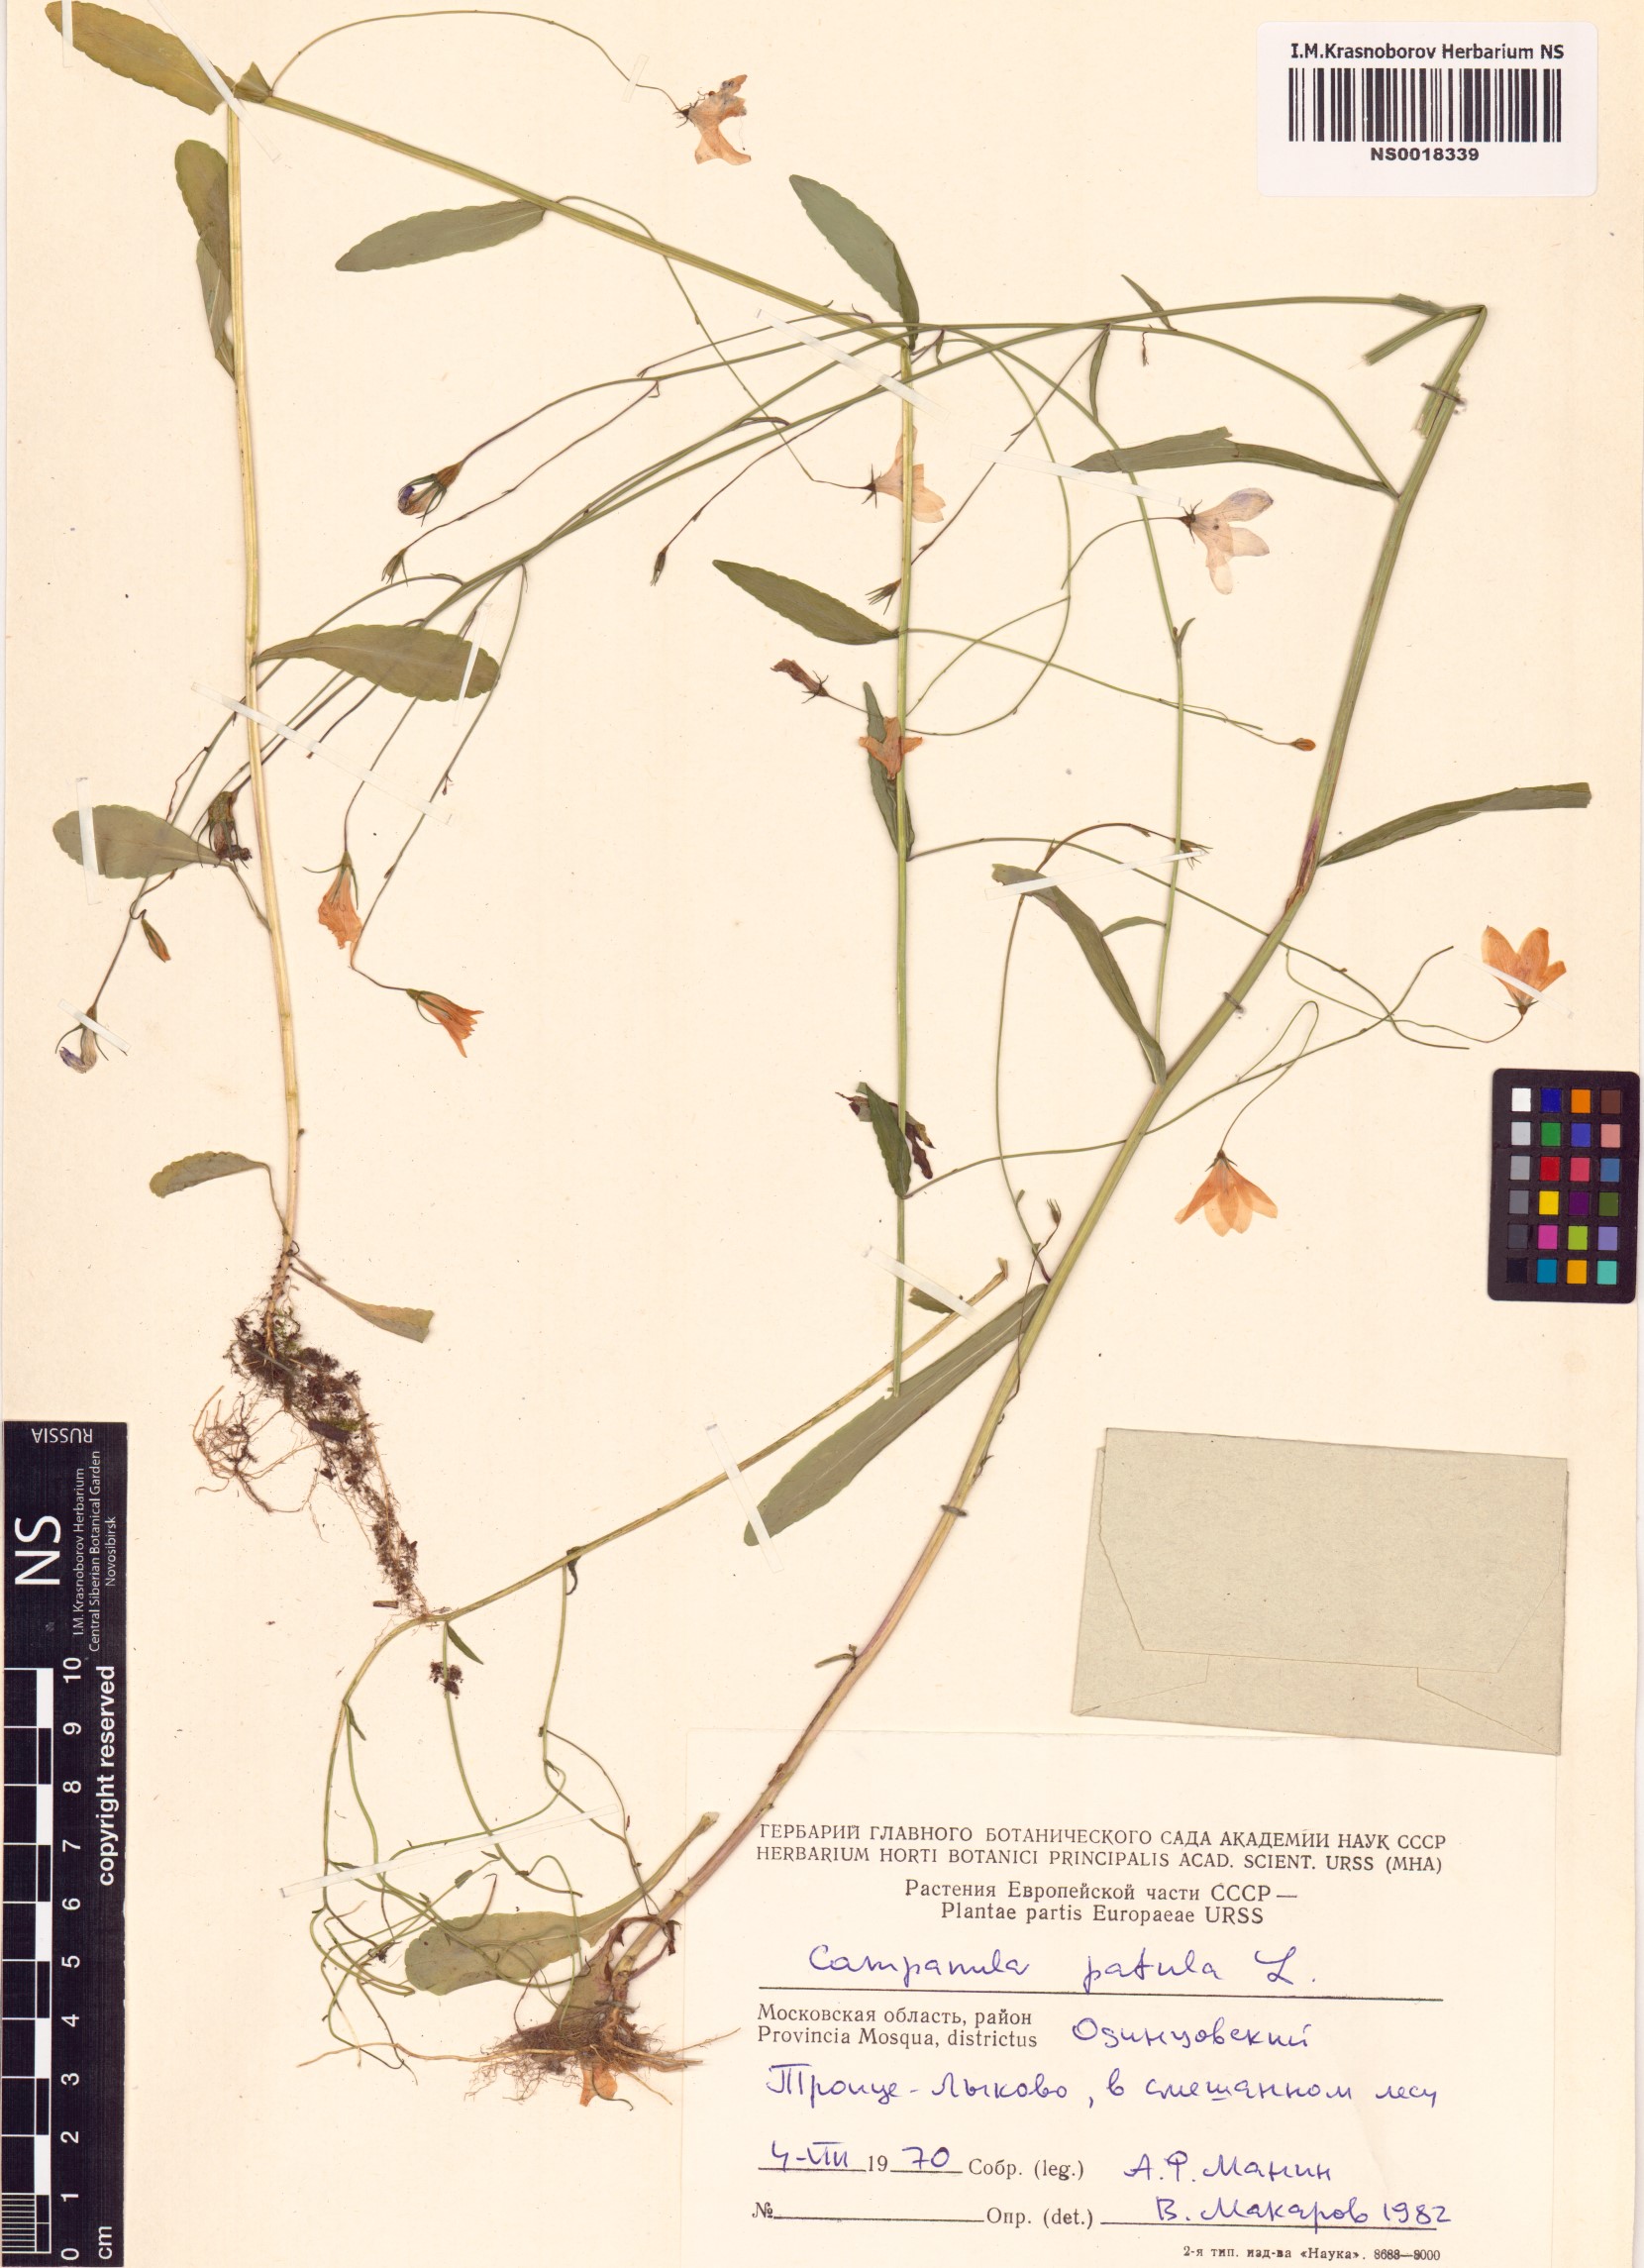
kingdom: Plantae
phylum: Tracheophyta
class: Magnoliopsida
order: Asterales
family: Campanulaceae
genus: Campanula
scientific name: Campanula patula
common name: Spreading bellflower
